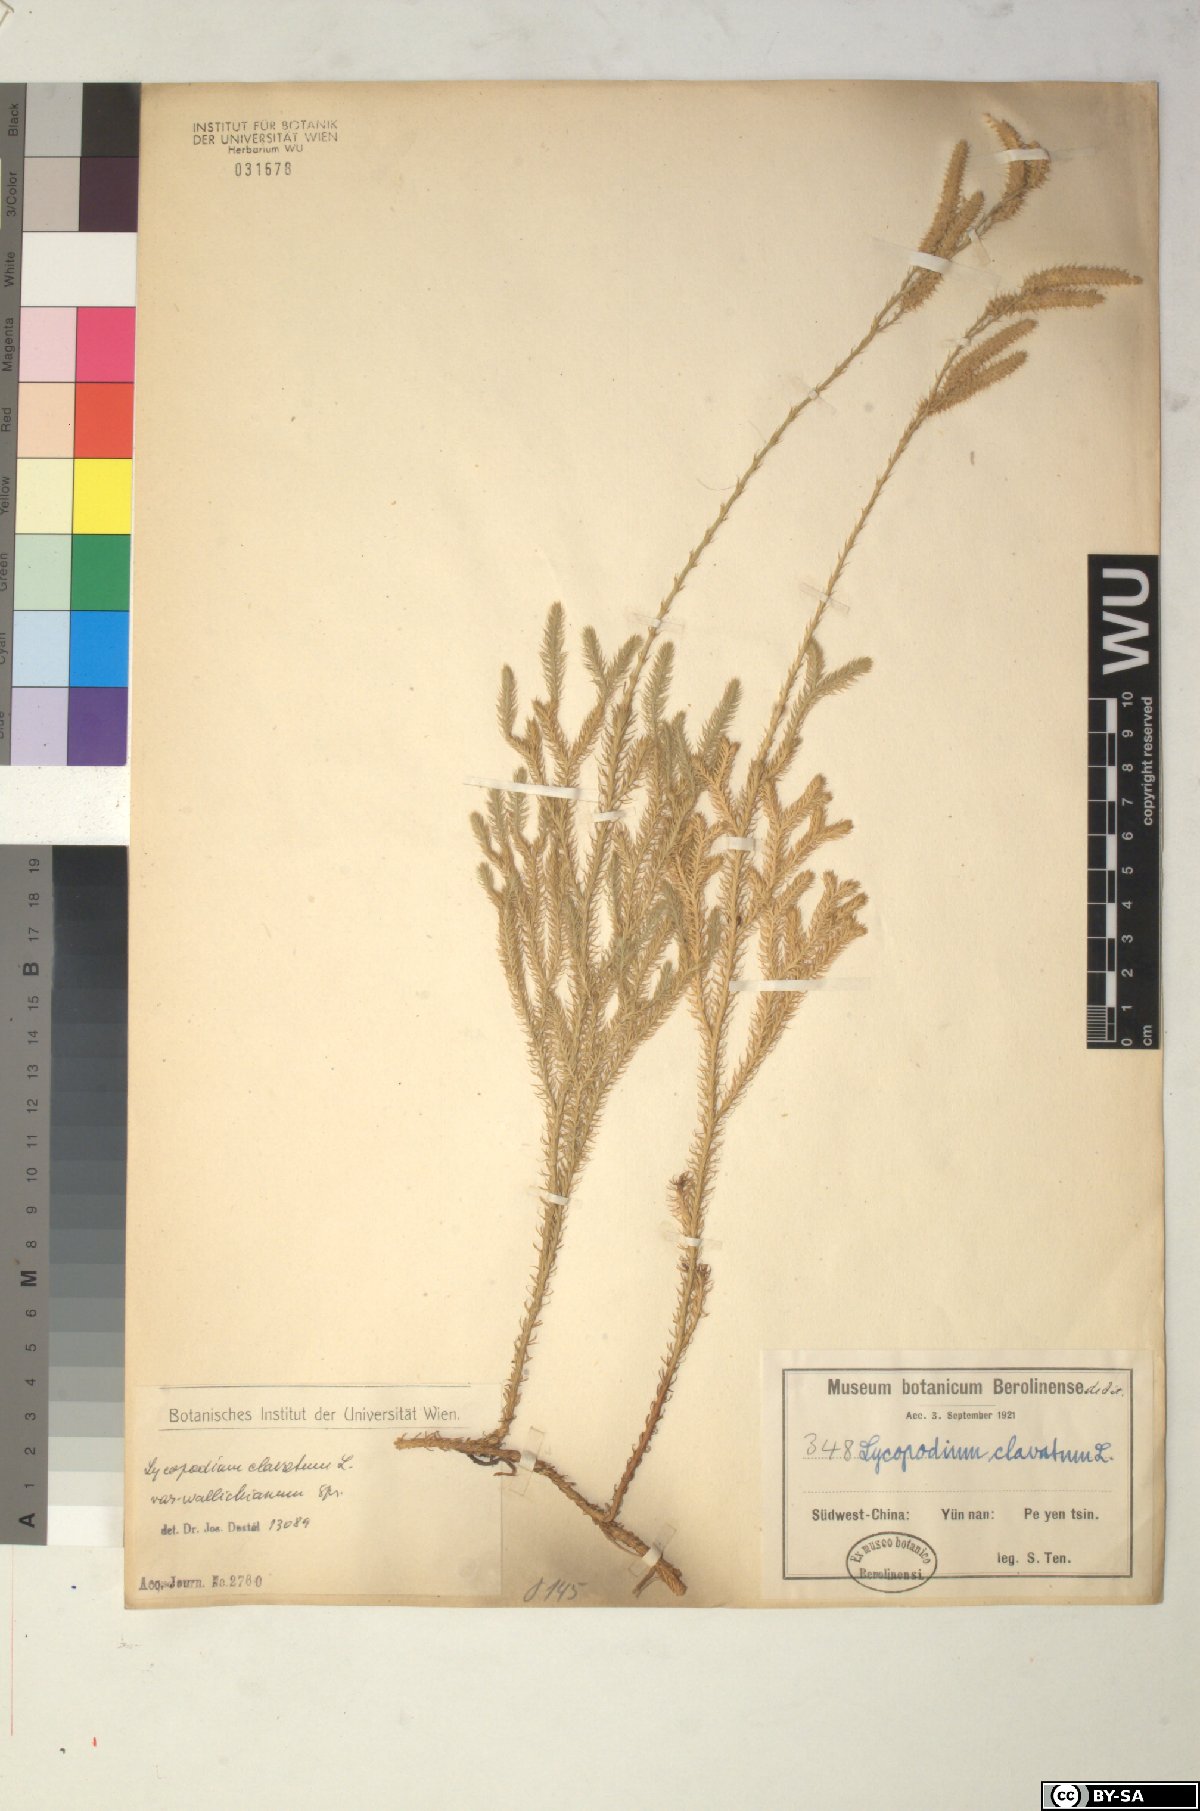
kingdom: Plantae
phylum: Tracheophyta
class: Lycopodiopsida
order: Lycopodiales
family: Lycopodiaceae
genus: Lycopodium
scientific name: Lycopodium japonicum
